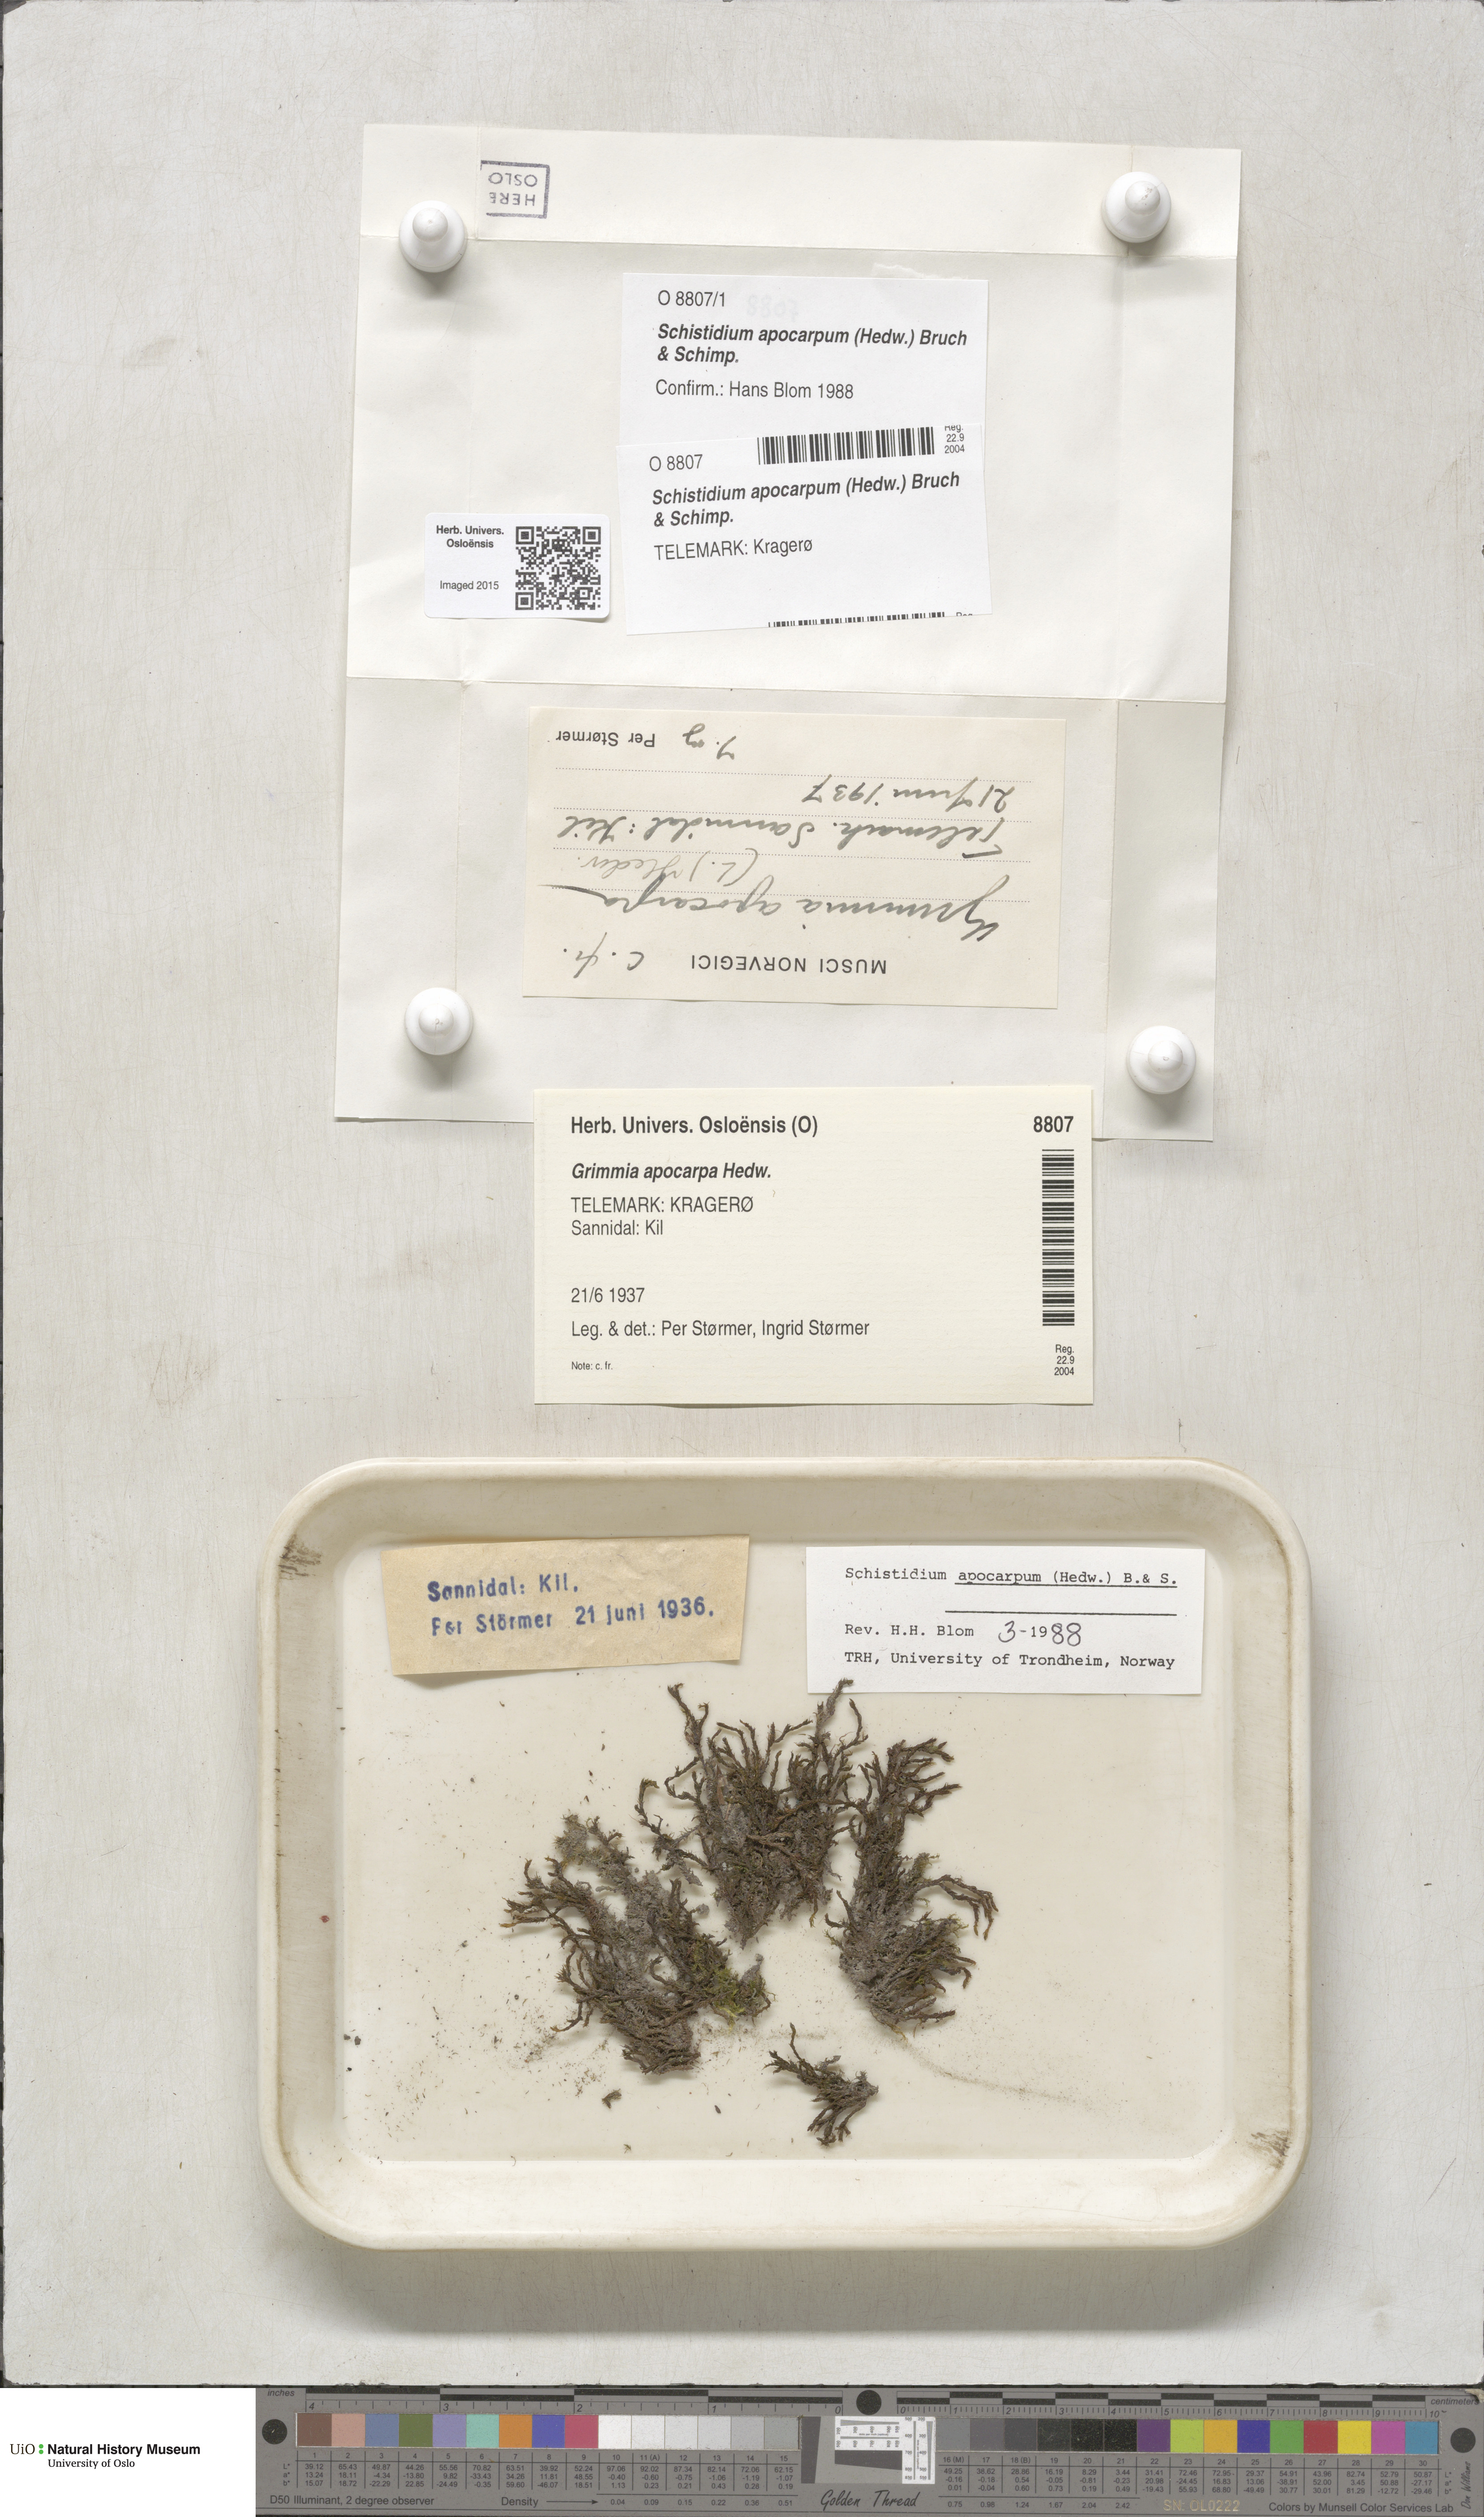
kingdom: Plantae
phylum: Bryophyta
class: Bryopsida
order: Grimmiales
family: Grimmiaceae
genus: Schistidium
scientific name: Schistidium apocarpum
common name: Radiate bloom moss
